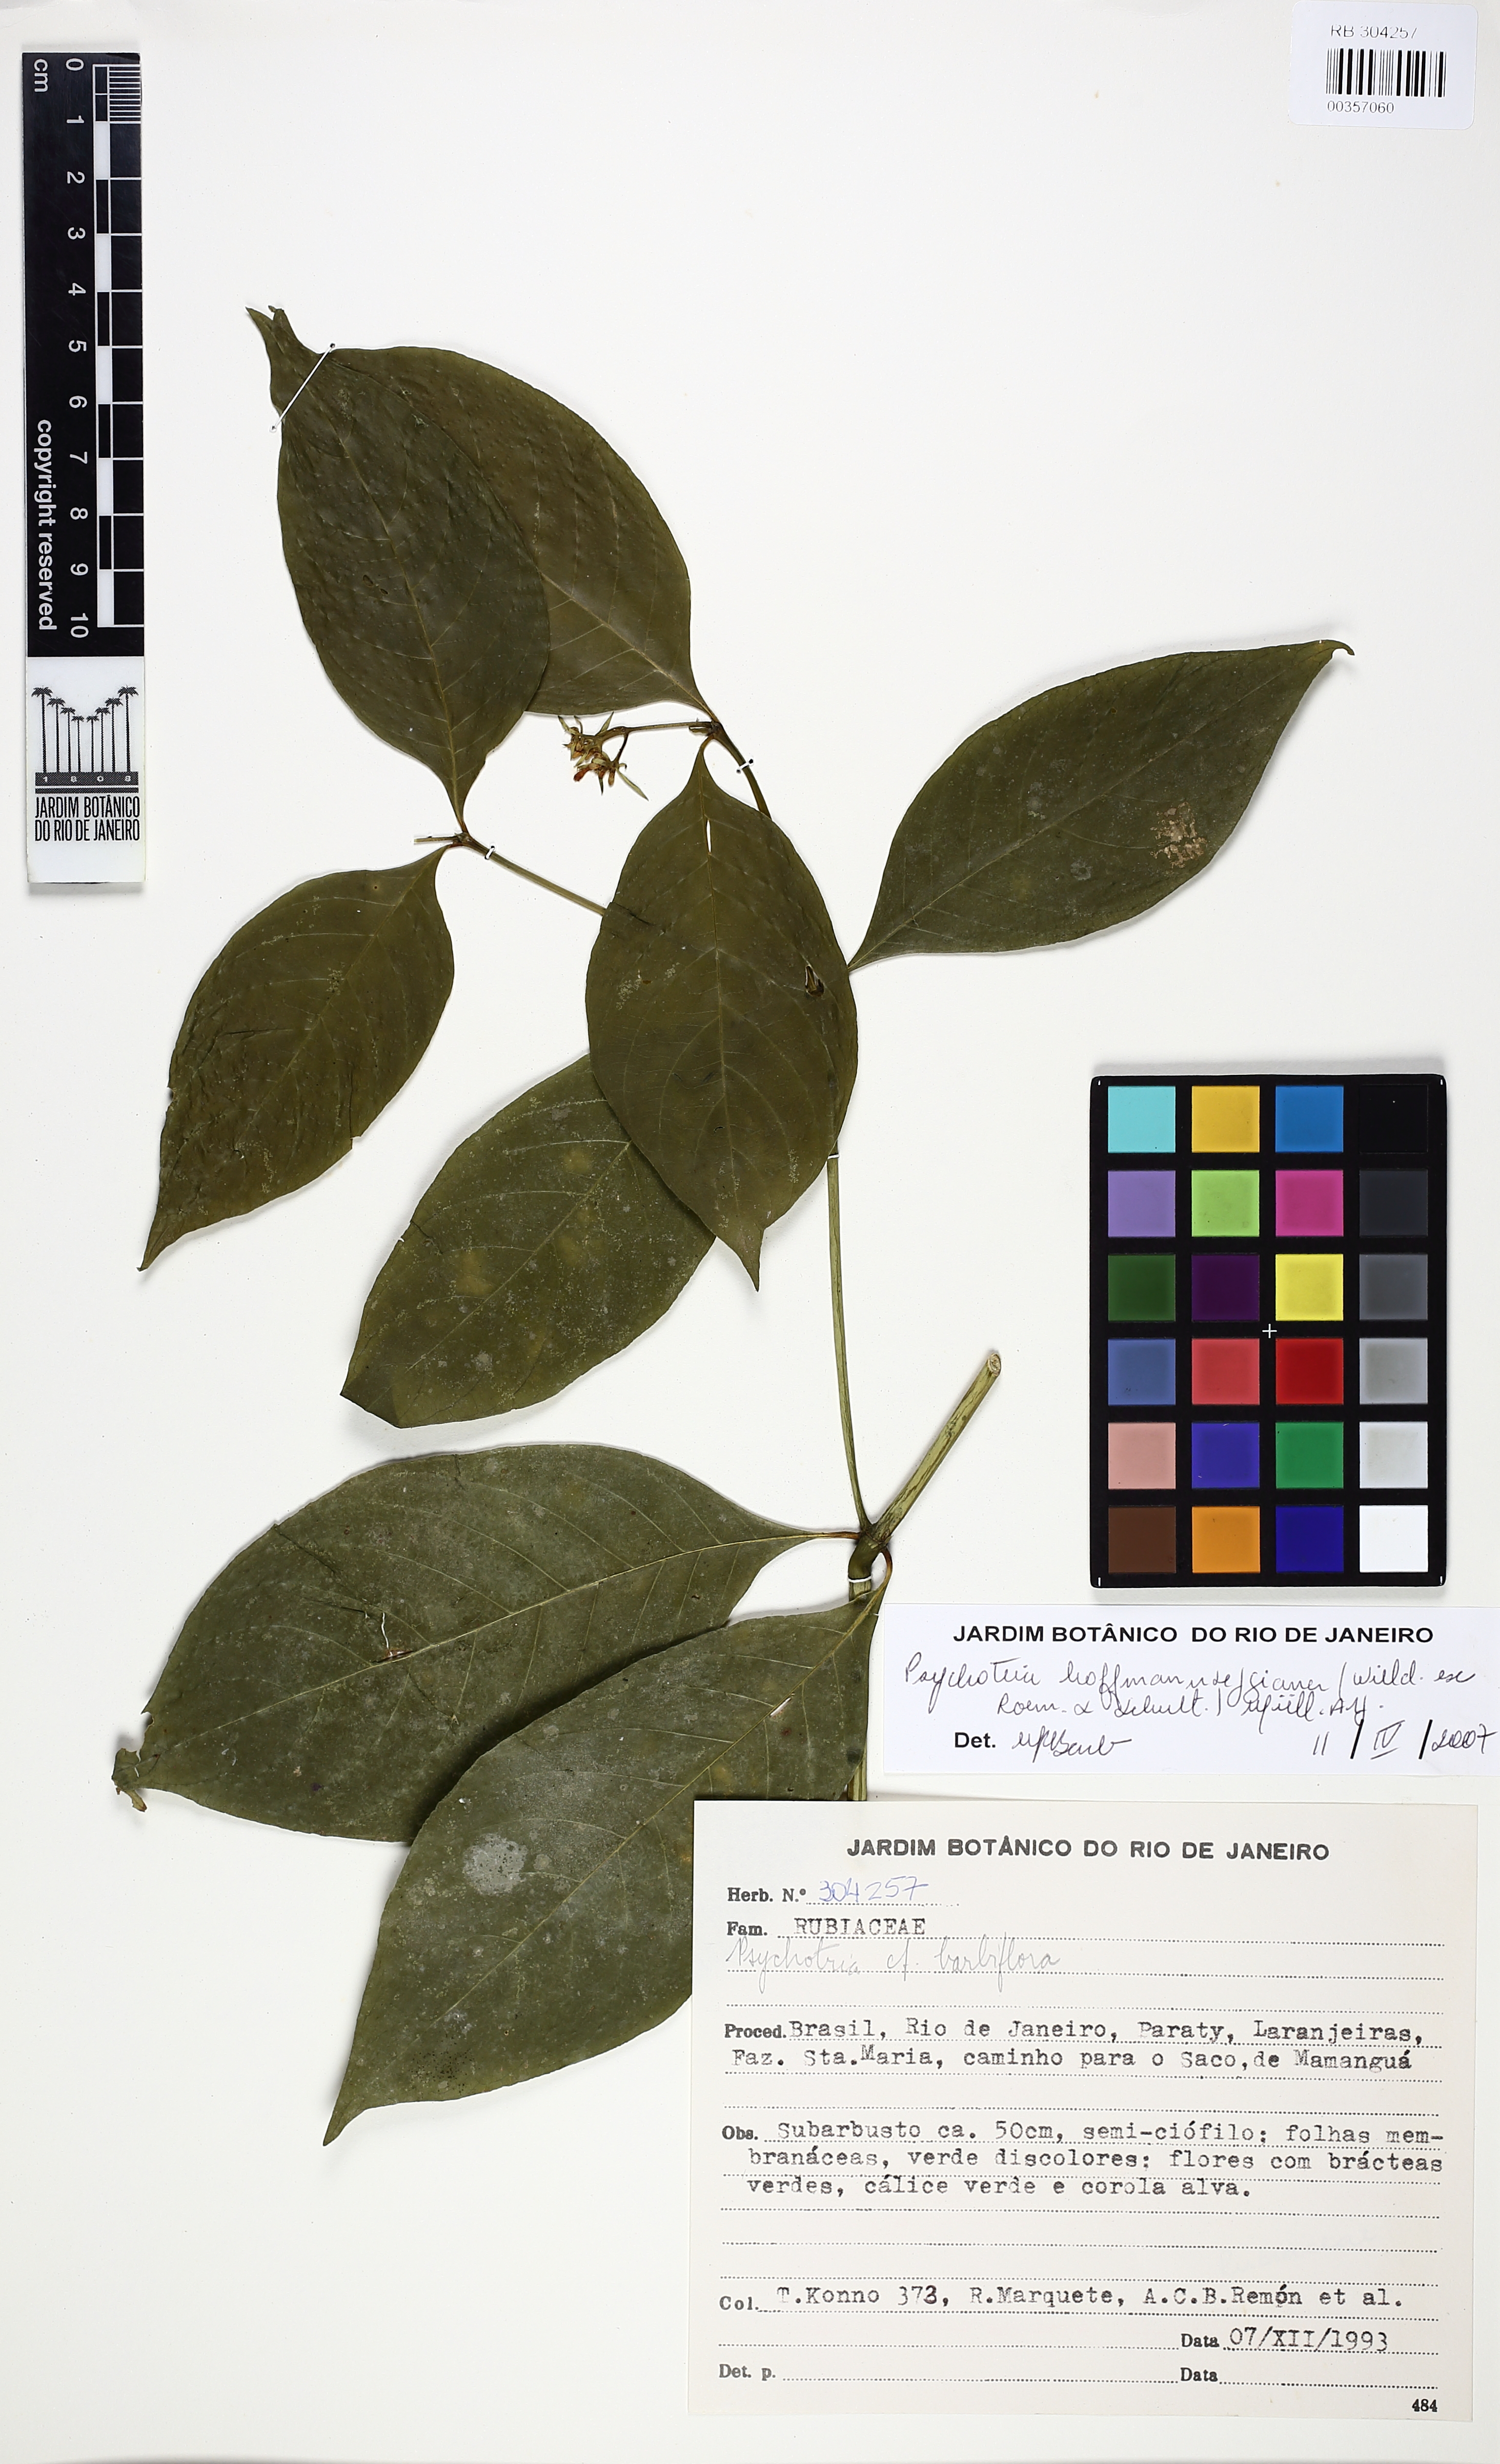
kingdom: Plantae
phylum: Tracheophyta
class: Magnoliopsida
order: Gentianales
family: Rubiaceae
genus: Palicourea
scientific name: Palicourea hoffmannseggiana
